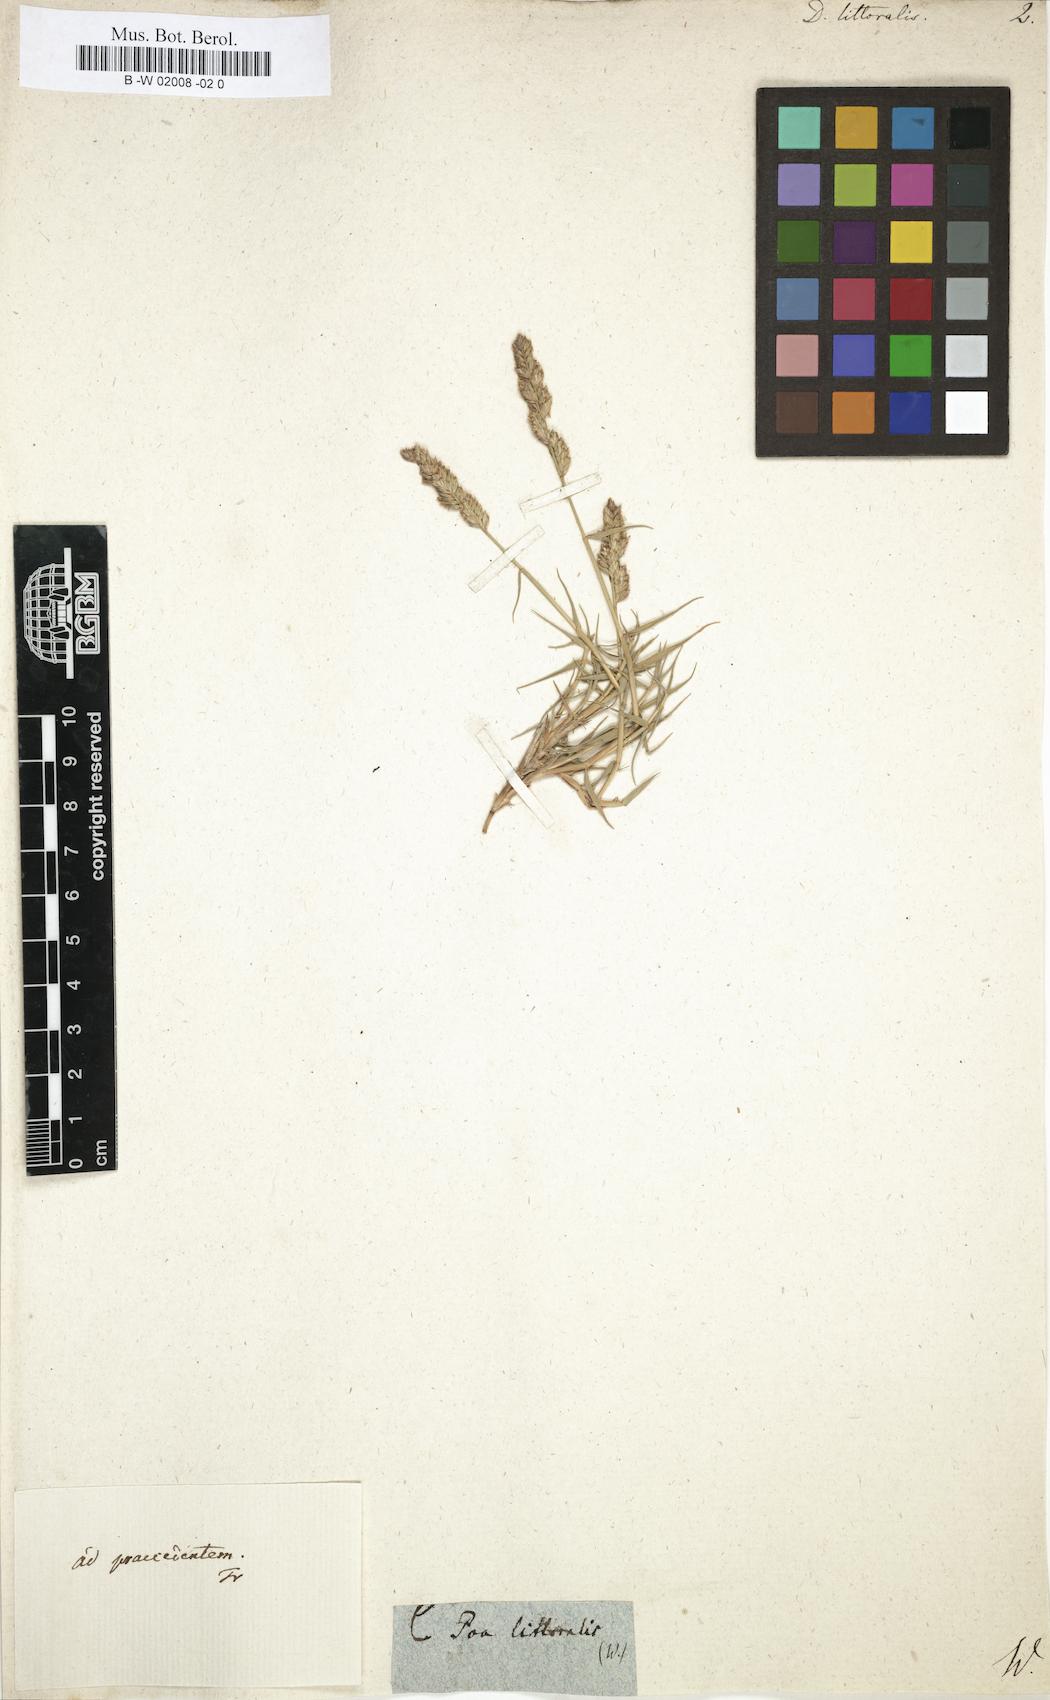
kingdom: Plantae
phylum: Tracheophyta
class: Liliopsida
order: Poales
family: Poaceae
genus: Aeluropus
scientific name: Aeluropus littoralis
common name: Indian walnut
